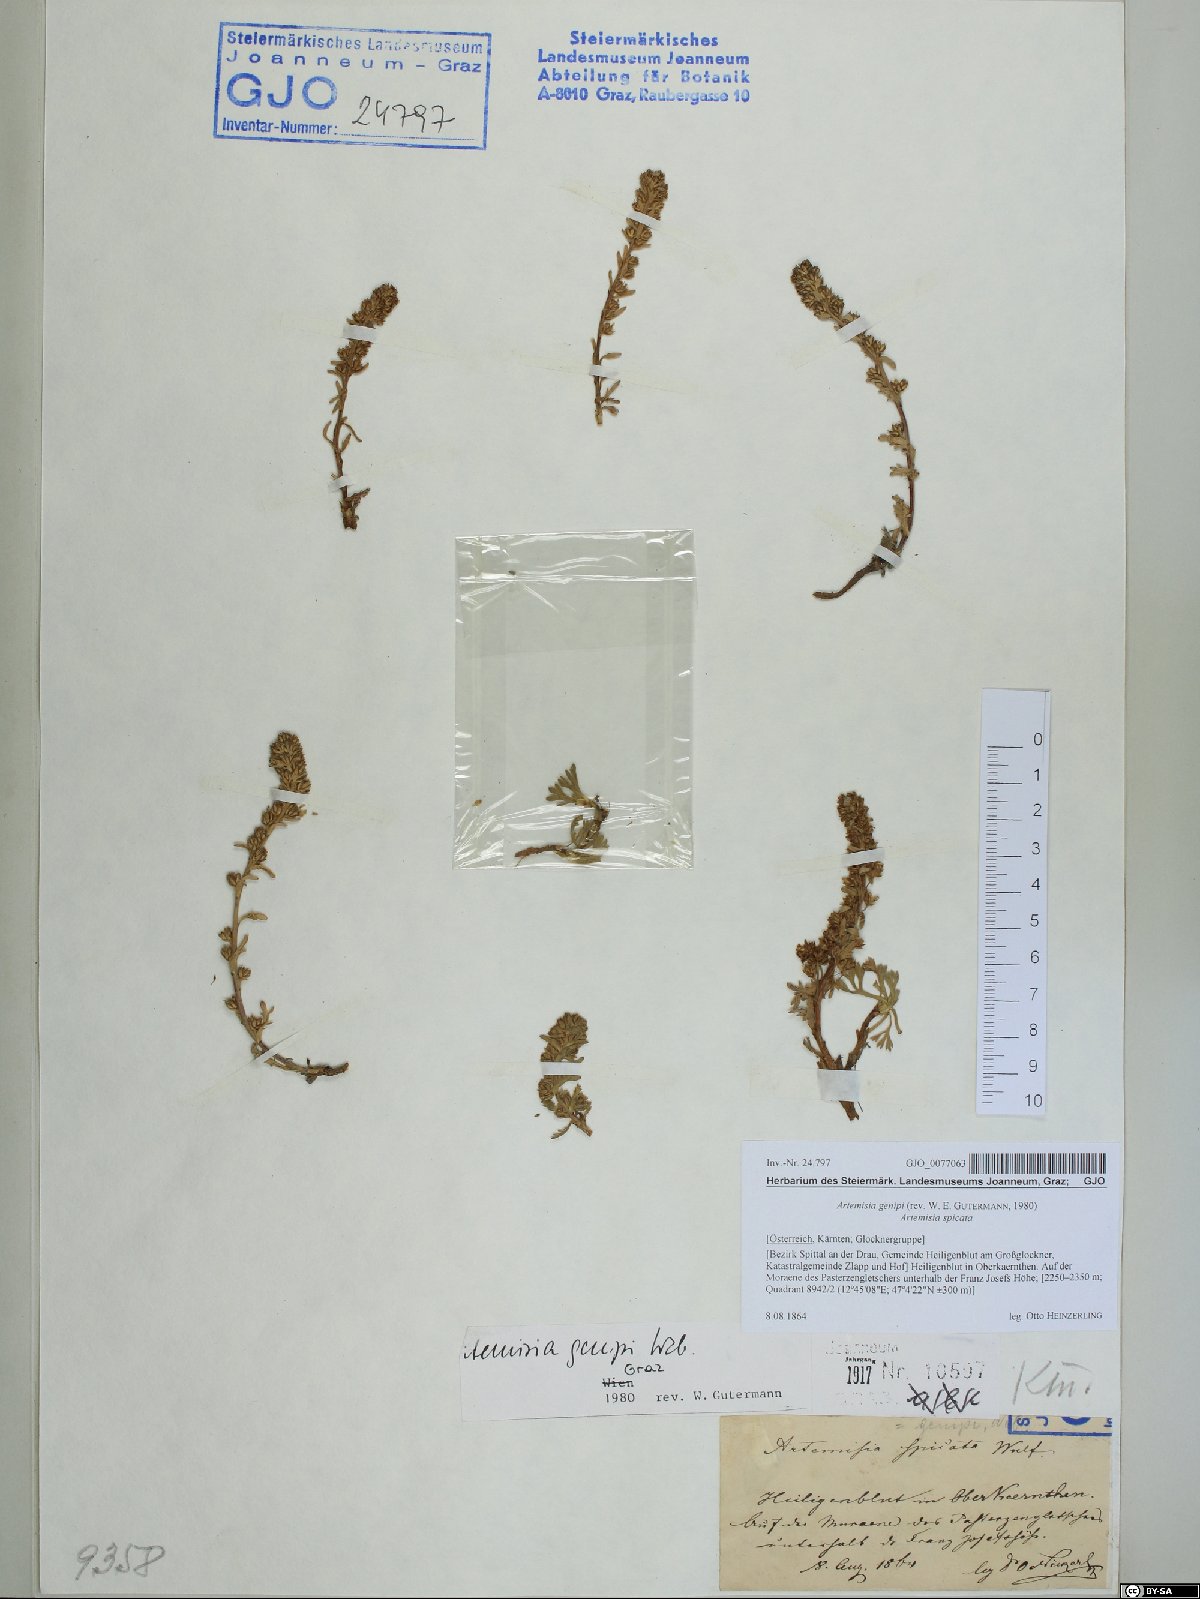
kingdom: Plantae
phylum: Tracheophyta
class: Magnoliopsida
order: Asterales
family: Asteraceae
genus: Artemisia
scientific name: Artemisia genipi
